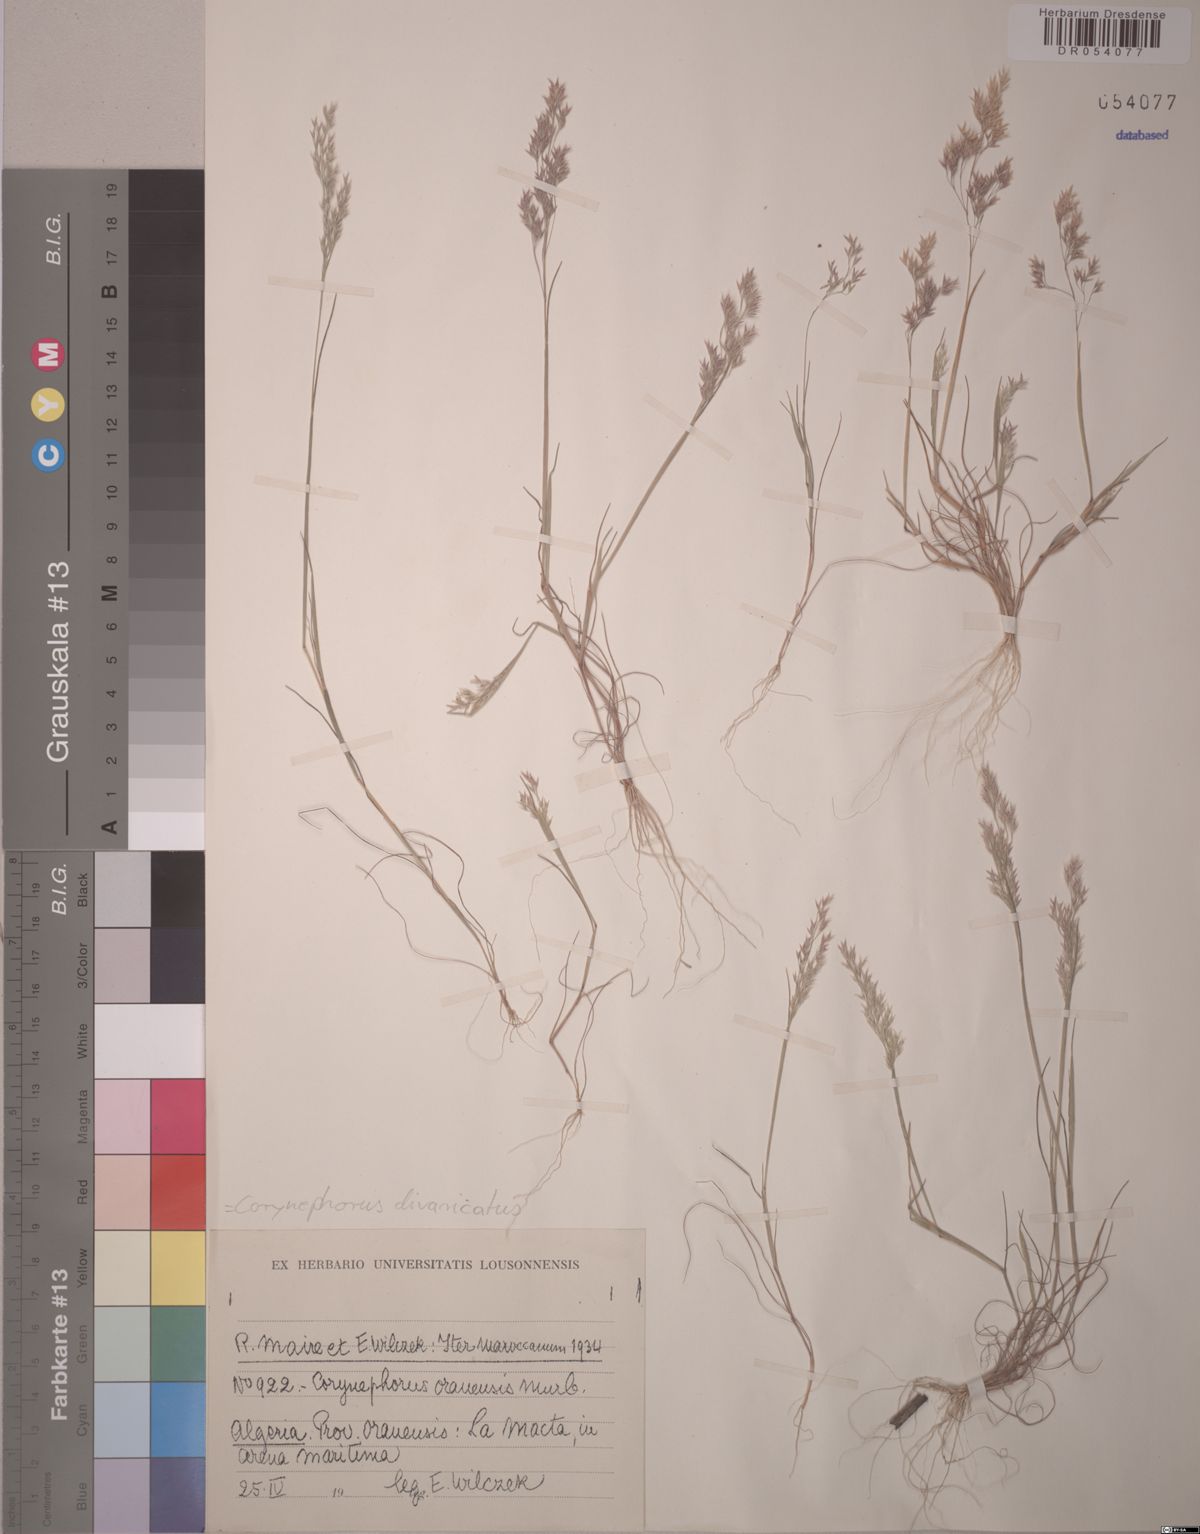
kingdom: Plantae
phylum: Tracheophyta
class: Liliopsida
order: Poales
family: Poaceae
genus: Corynephorus
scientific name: Corynephorus divaricatus
